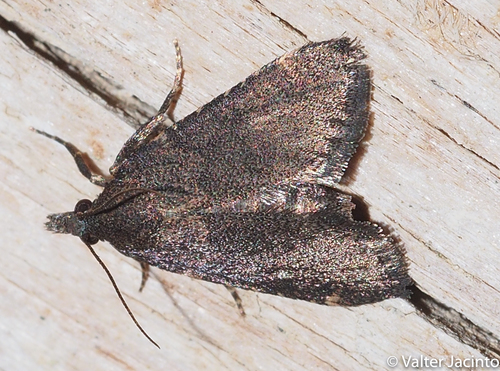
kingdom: Animalia
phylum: Arthropoda
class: Insecta
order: Lepidoptera
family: Pyralidae
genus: Stemmatophora
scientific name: Stemmatophora syriacalis
